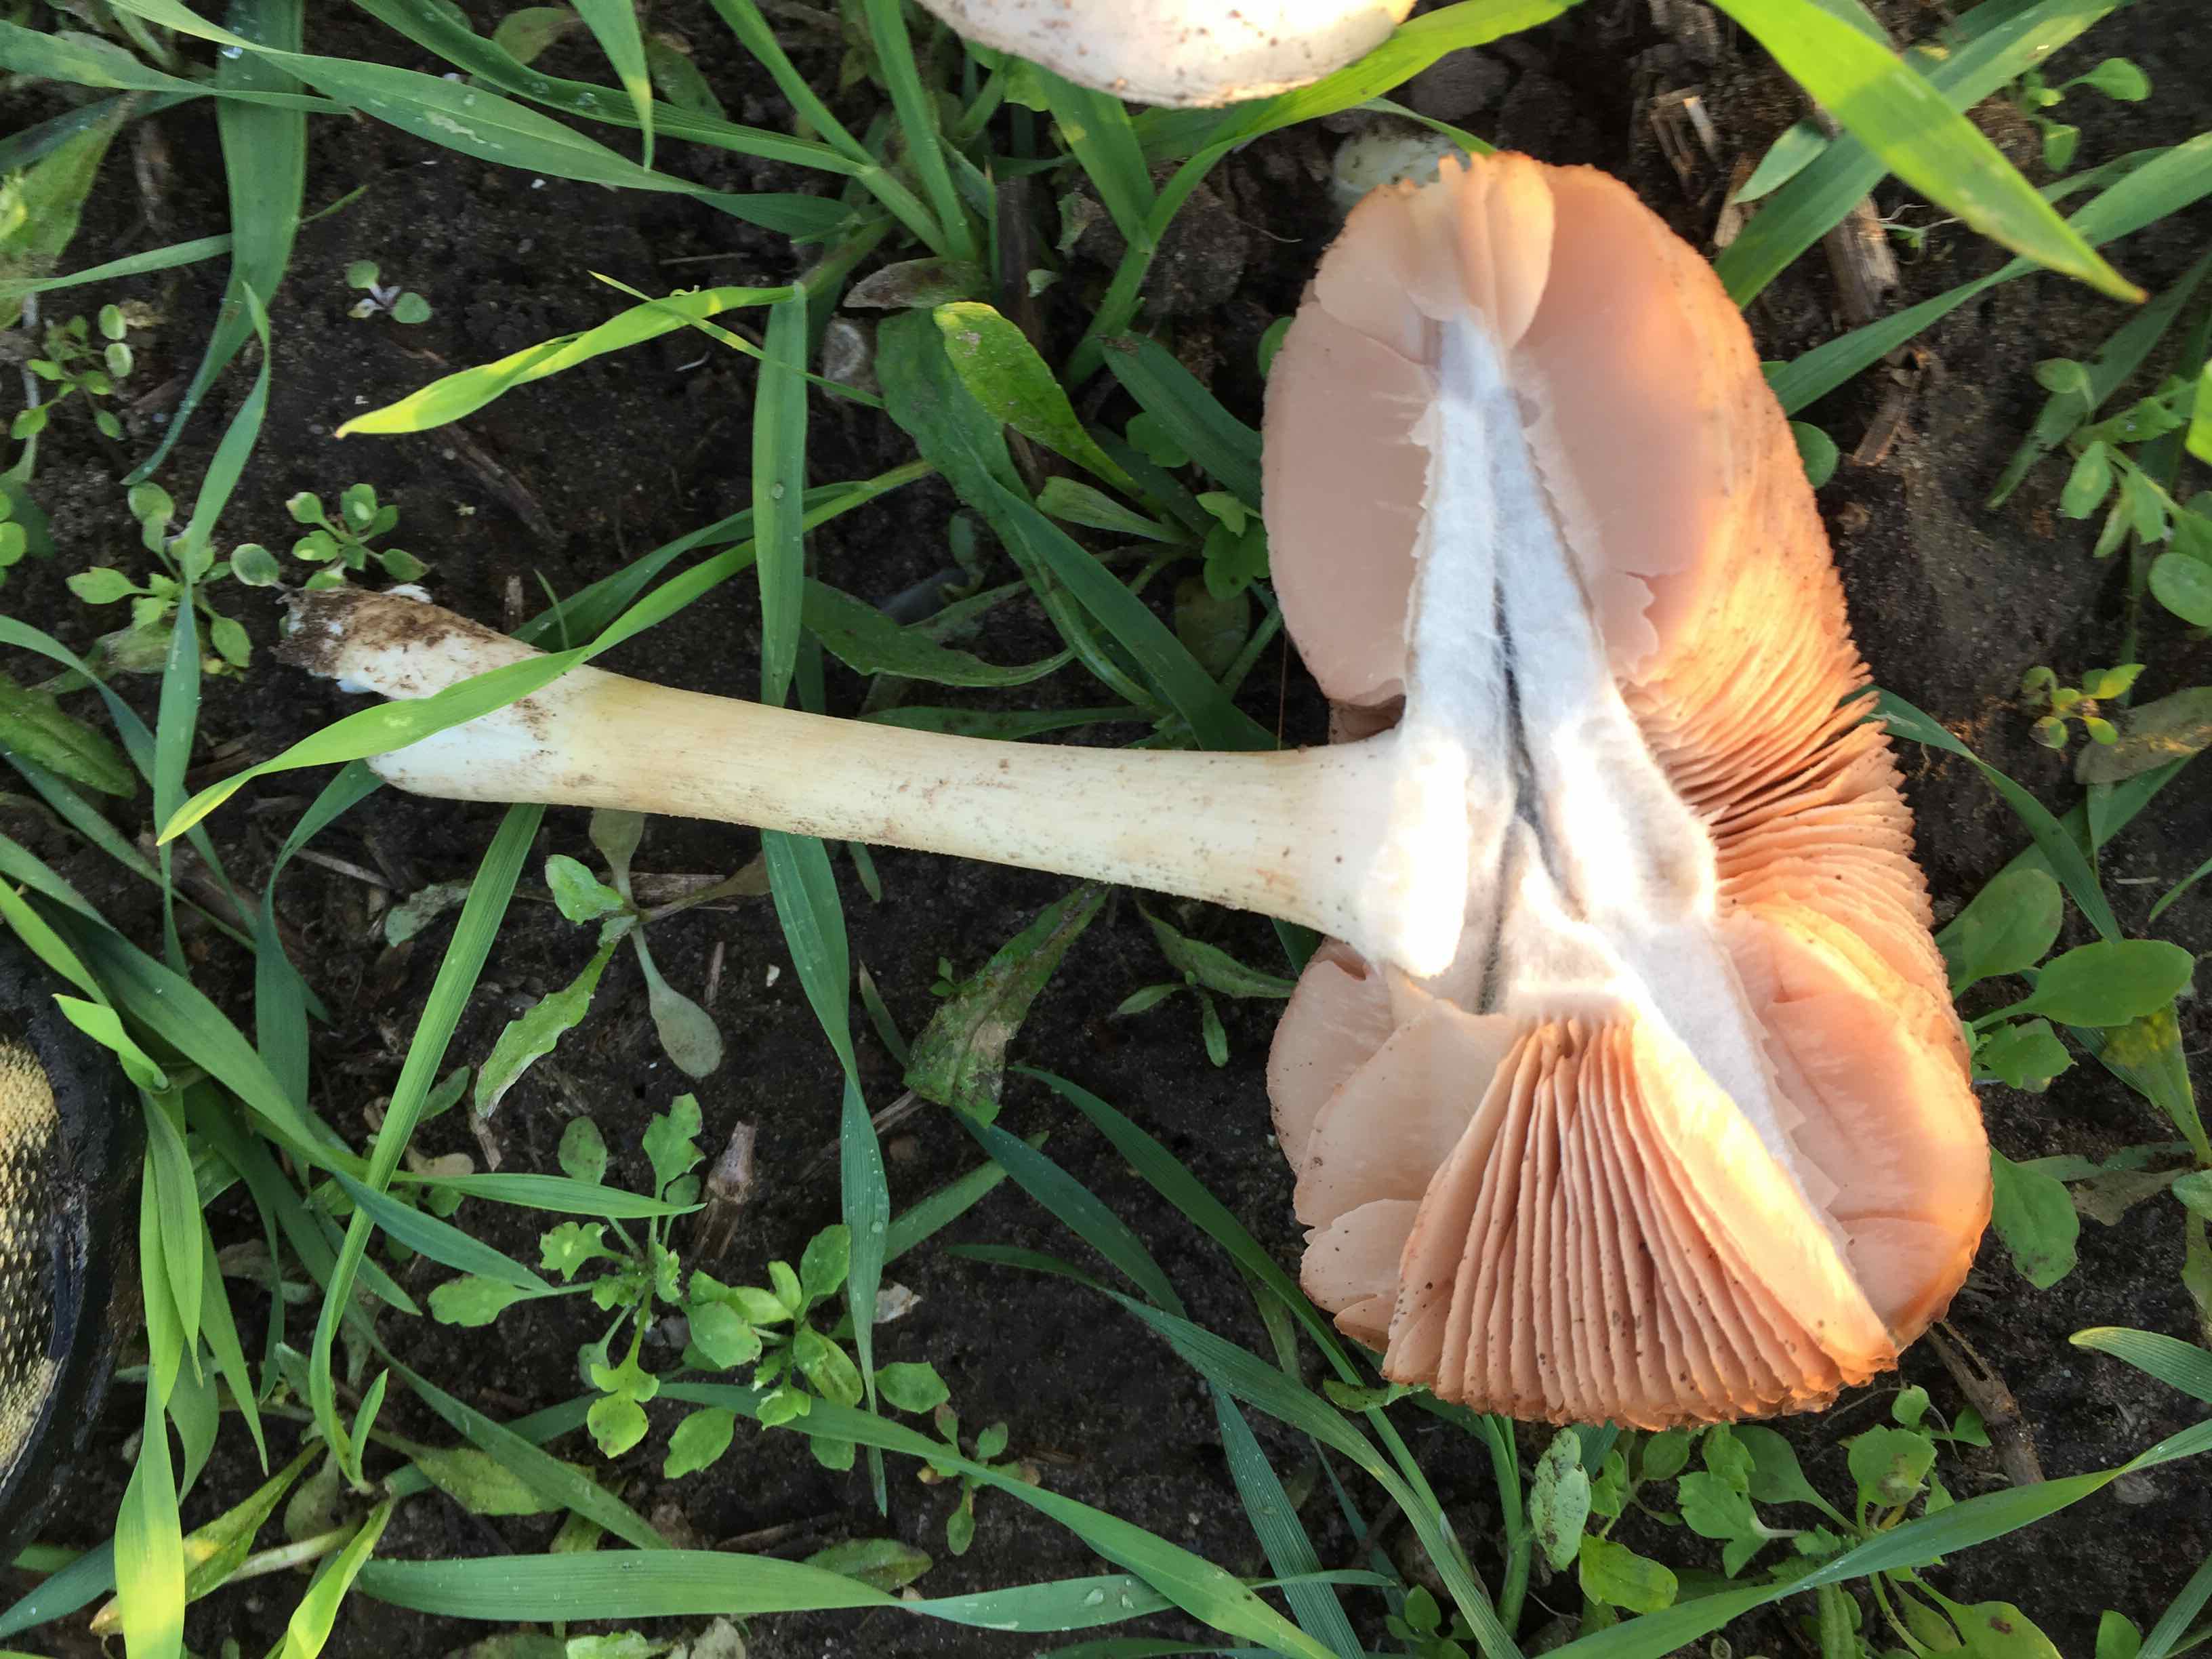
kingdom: Fungi
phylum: Basidiomycota
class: Agaricomycetes
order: Agaricales
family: Pluteaceae
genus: Volvopluteus
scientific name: Volvopluteus gloiocephalus
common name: høj posesvamp
